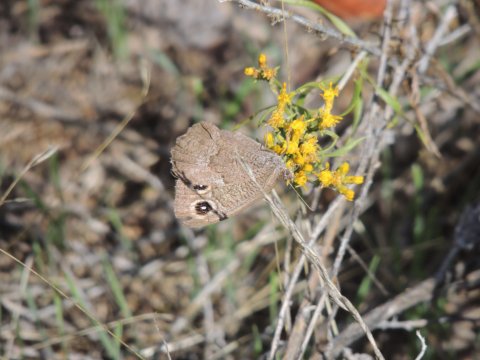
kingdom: Animalia
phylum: Arthropoda
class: Insecta
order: Lepidoptera
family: Nymphalidae
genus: Cercyonis
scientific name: Cercyonis pegala
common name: Common Wood-Nymph
